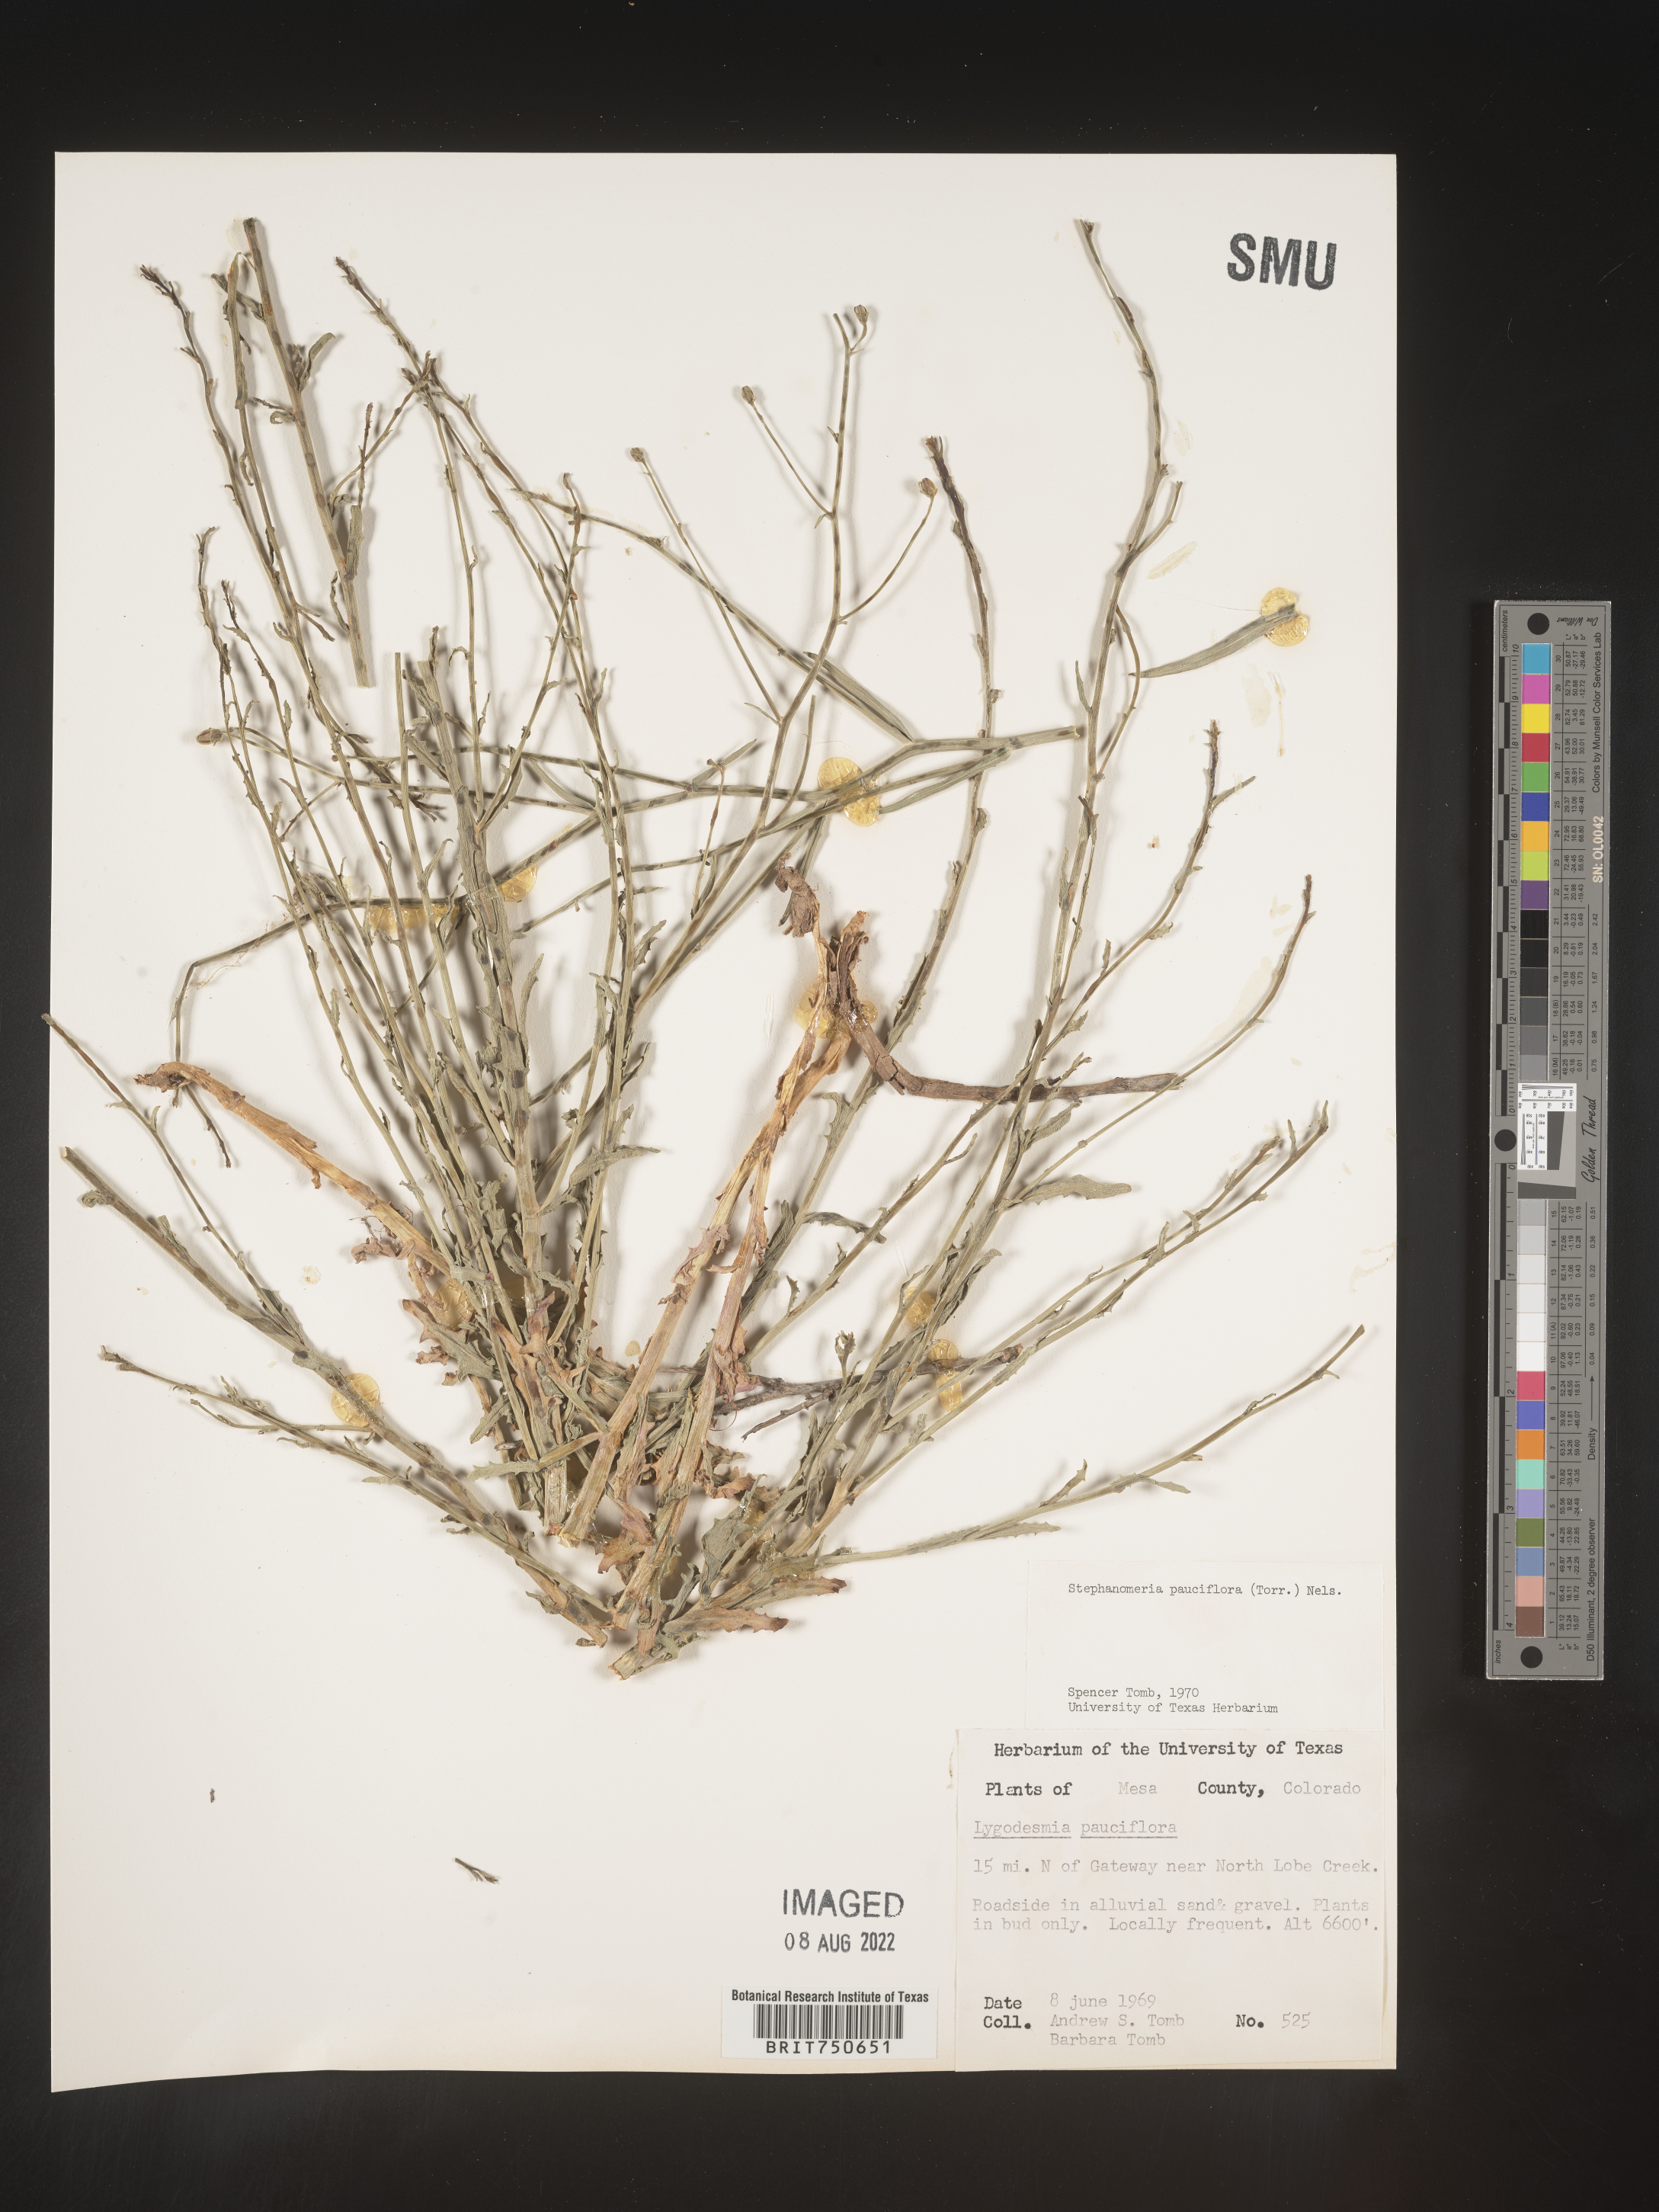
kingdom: Plantae
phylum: Tracheophyta
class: Magnoliopsida
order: Asterales
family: Asteraceae
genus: Stephanomeria
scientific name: Stephanomeria pauciflora
